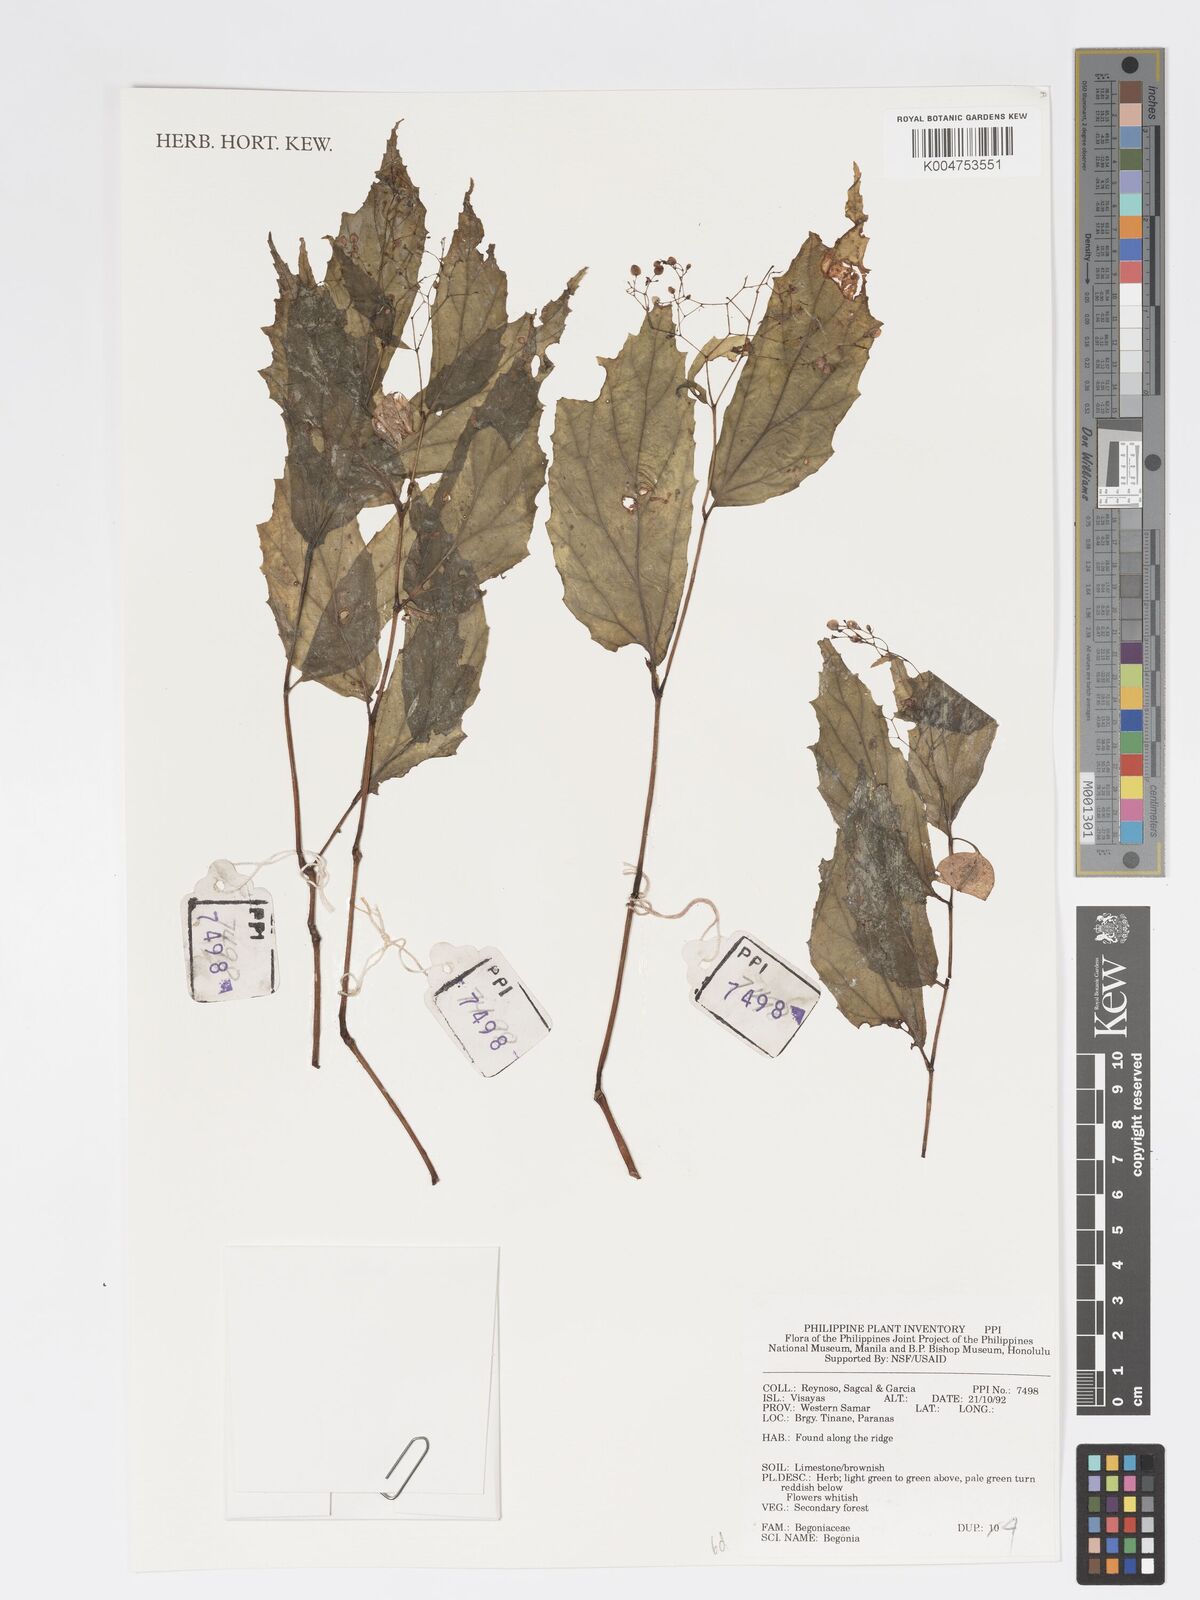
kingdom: Plantae
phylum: Tracheophyta
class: Magnoliopsida
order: Cucurbitales
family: Begoniaceae
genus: Begonia
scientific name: Begonia
